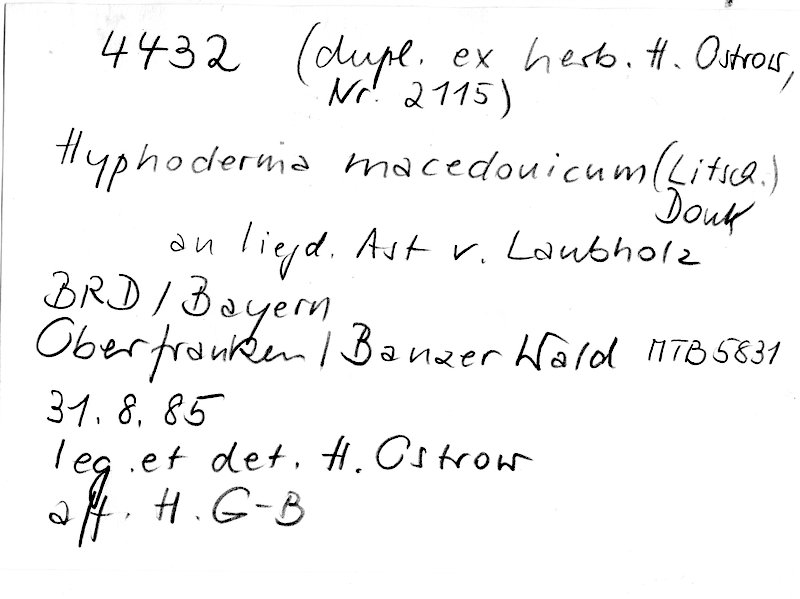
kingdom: Fungi
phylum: Basidiomycota
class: Agaricomycetes
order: Hymenochaetales
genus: Kurtia
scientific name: Kurtia macedonica
